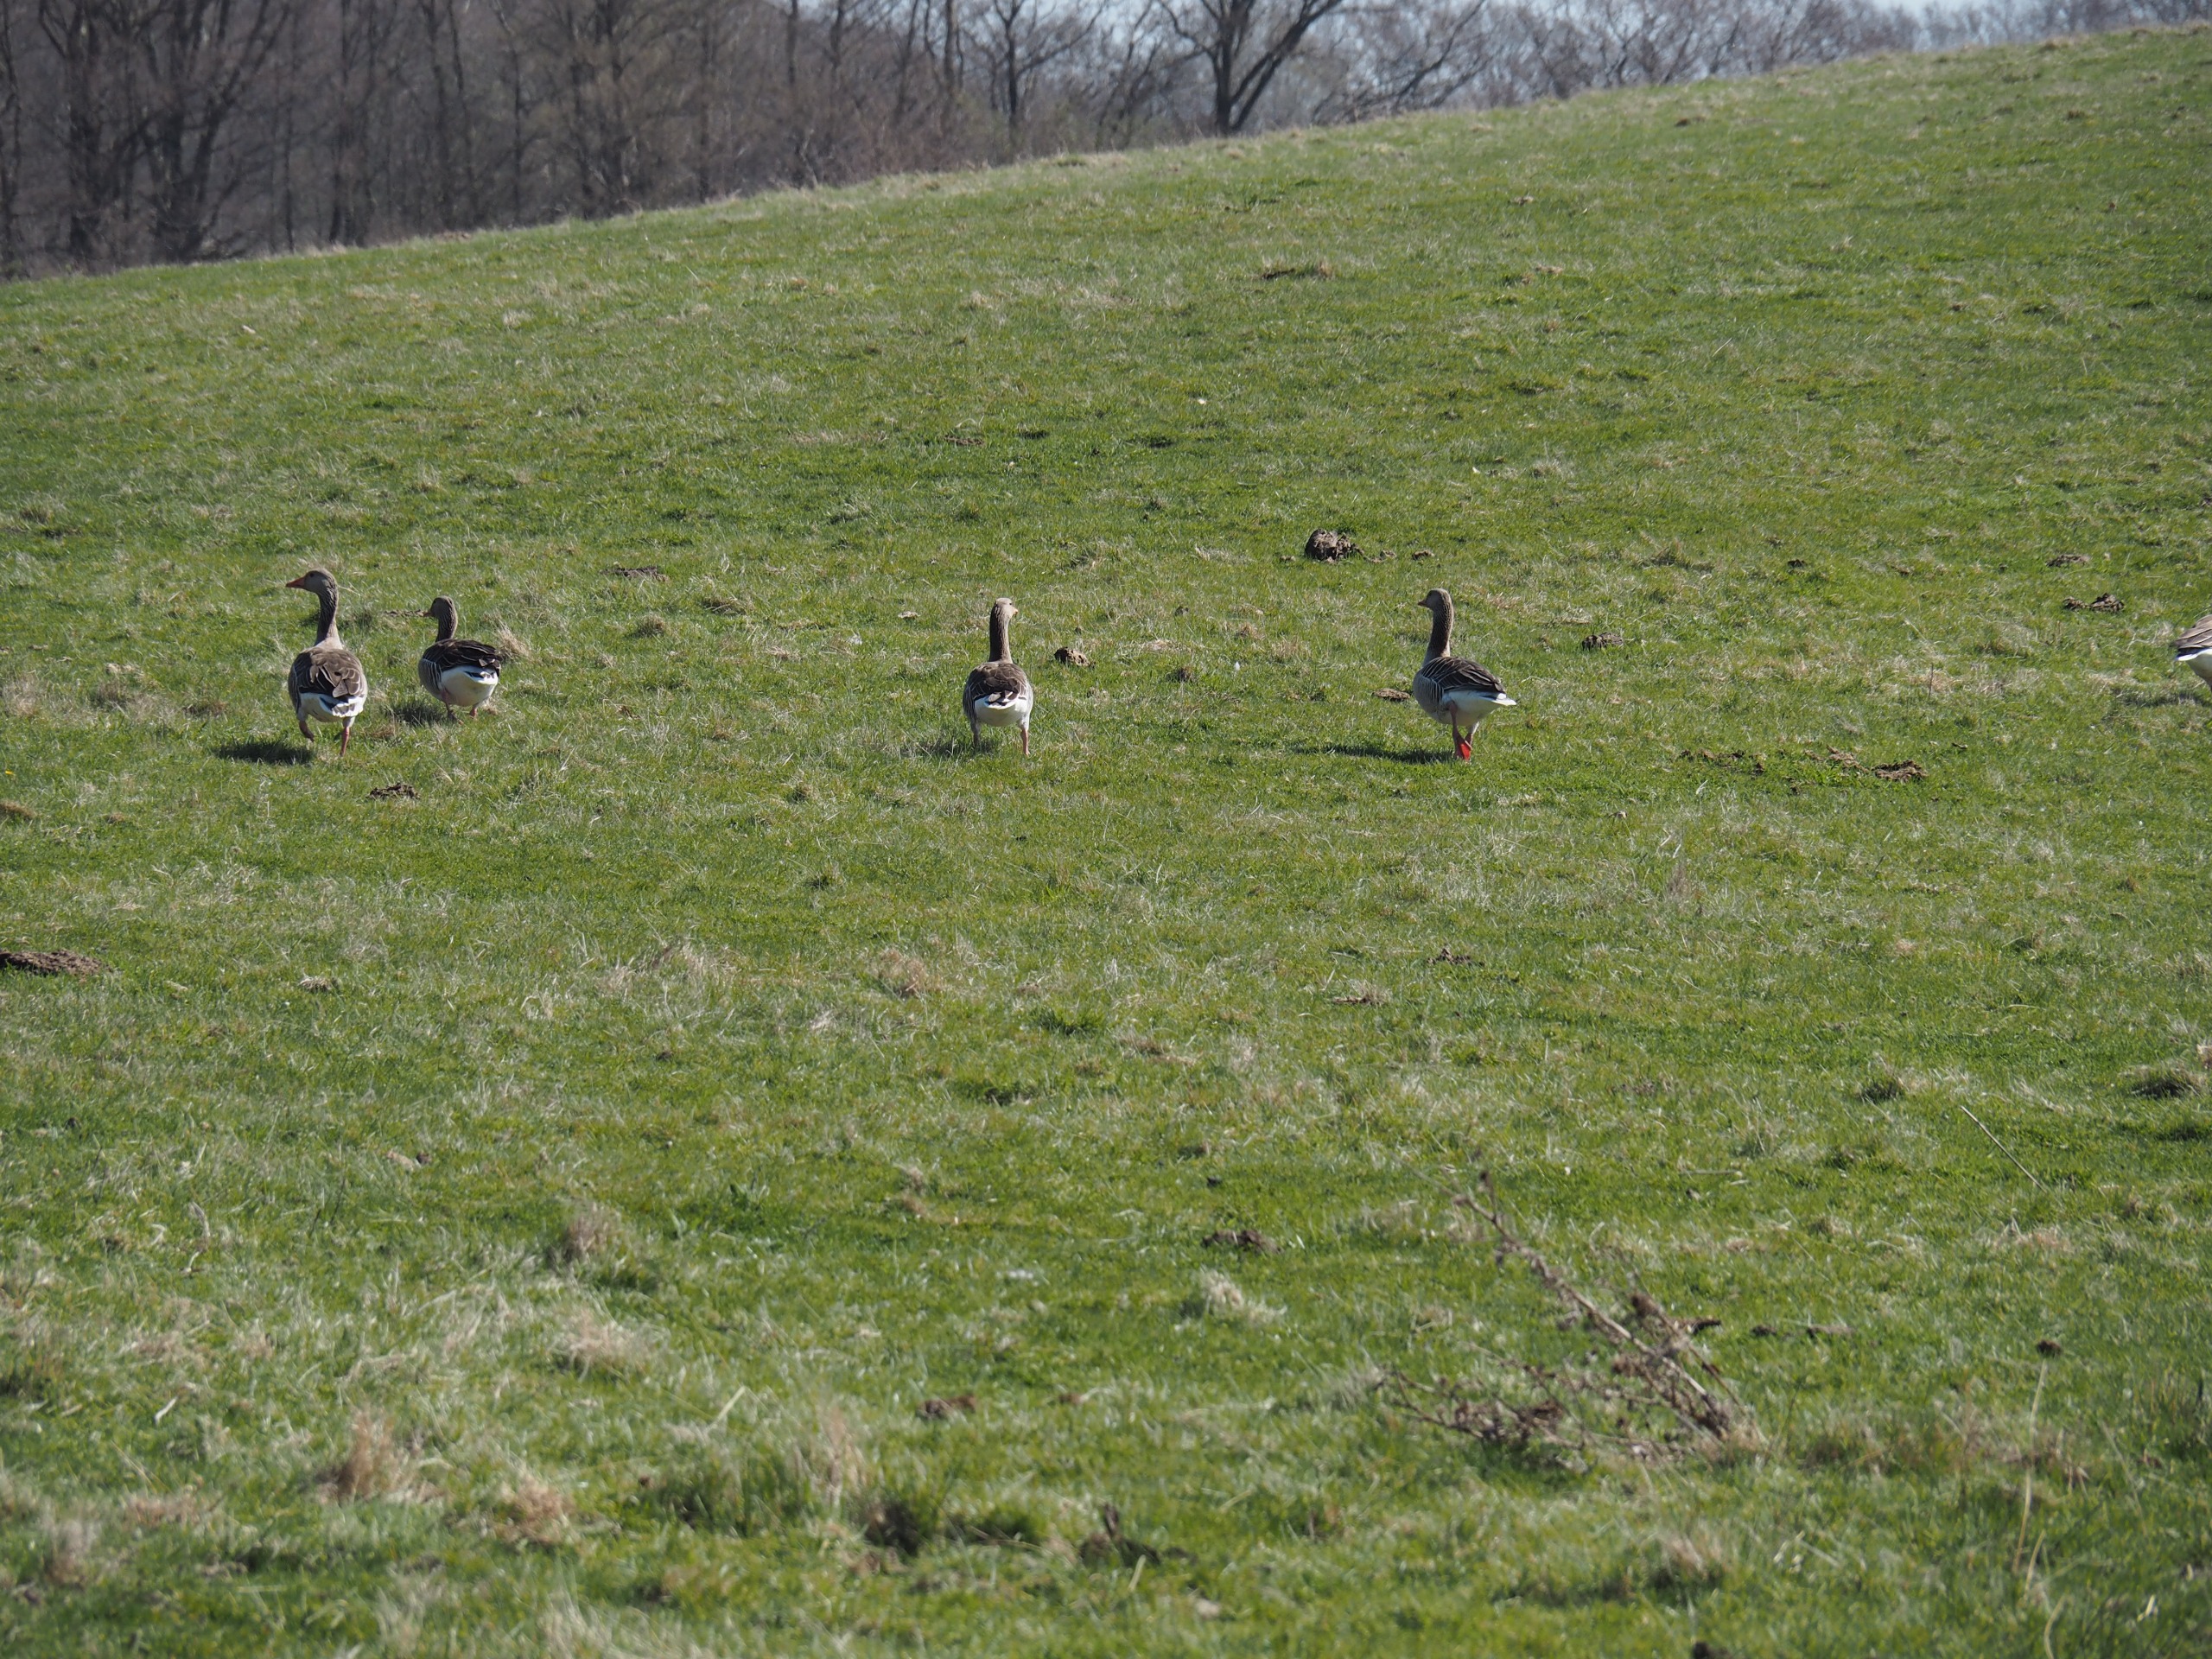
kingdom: Animalia
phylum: Chordata
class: Aves
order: Anseriformes
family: Anatidae
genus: Anser
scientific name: Anser anser
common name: Grågås
